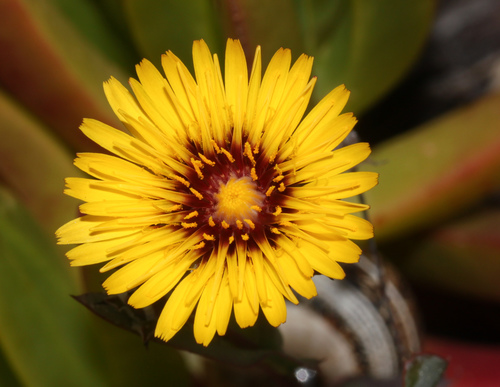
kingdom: Plantae
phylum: Tracheophyta
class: Magnoliopsida
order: Asterales
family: Asteraceae
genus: Reichardia
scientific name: Reichardia gaditana
